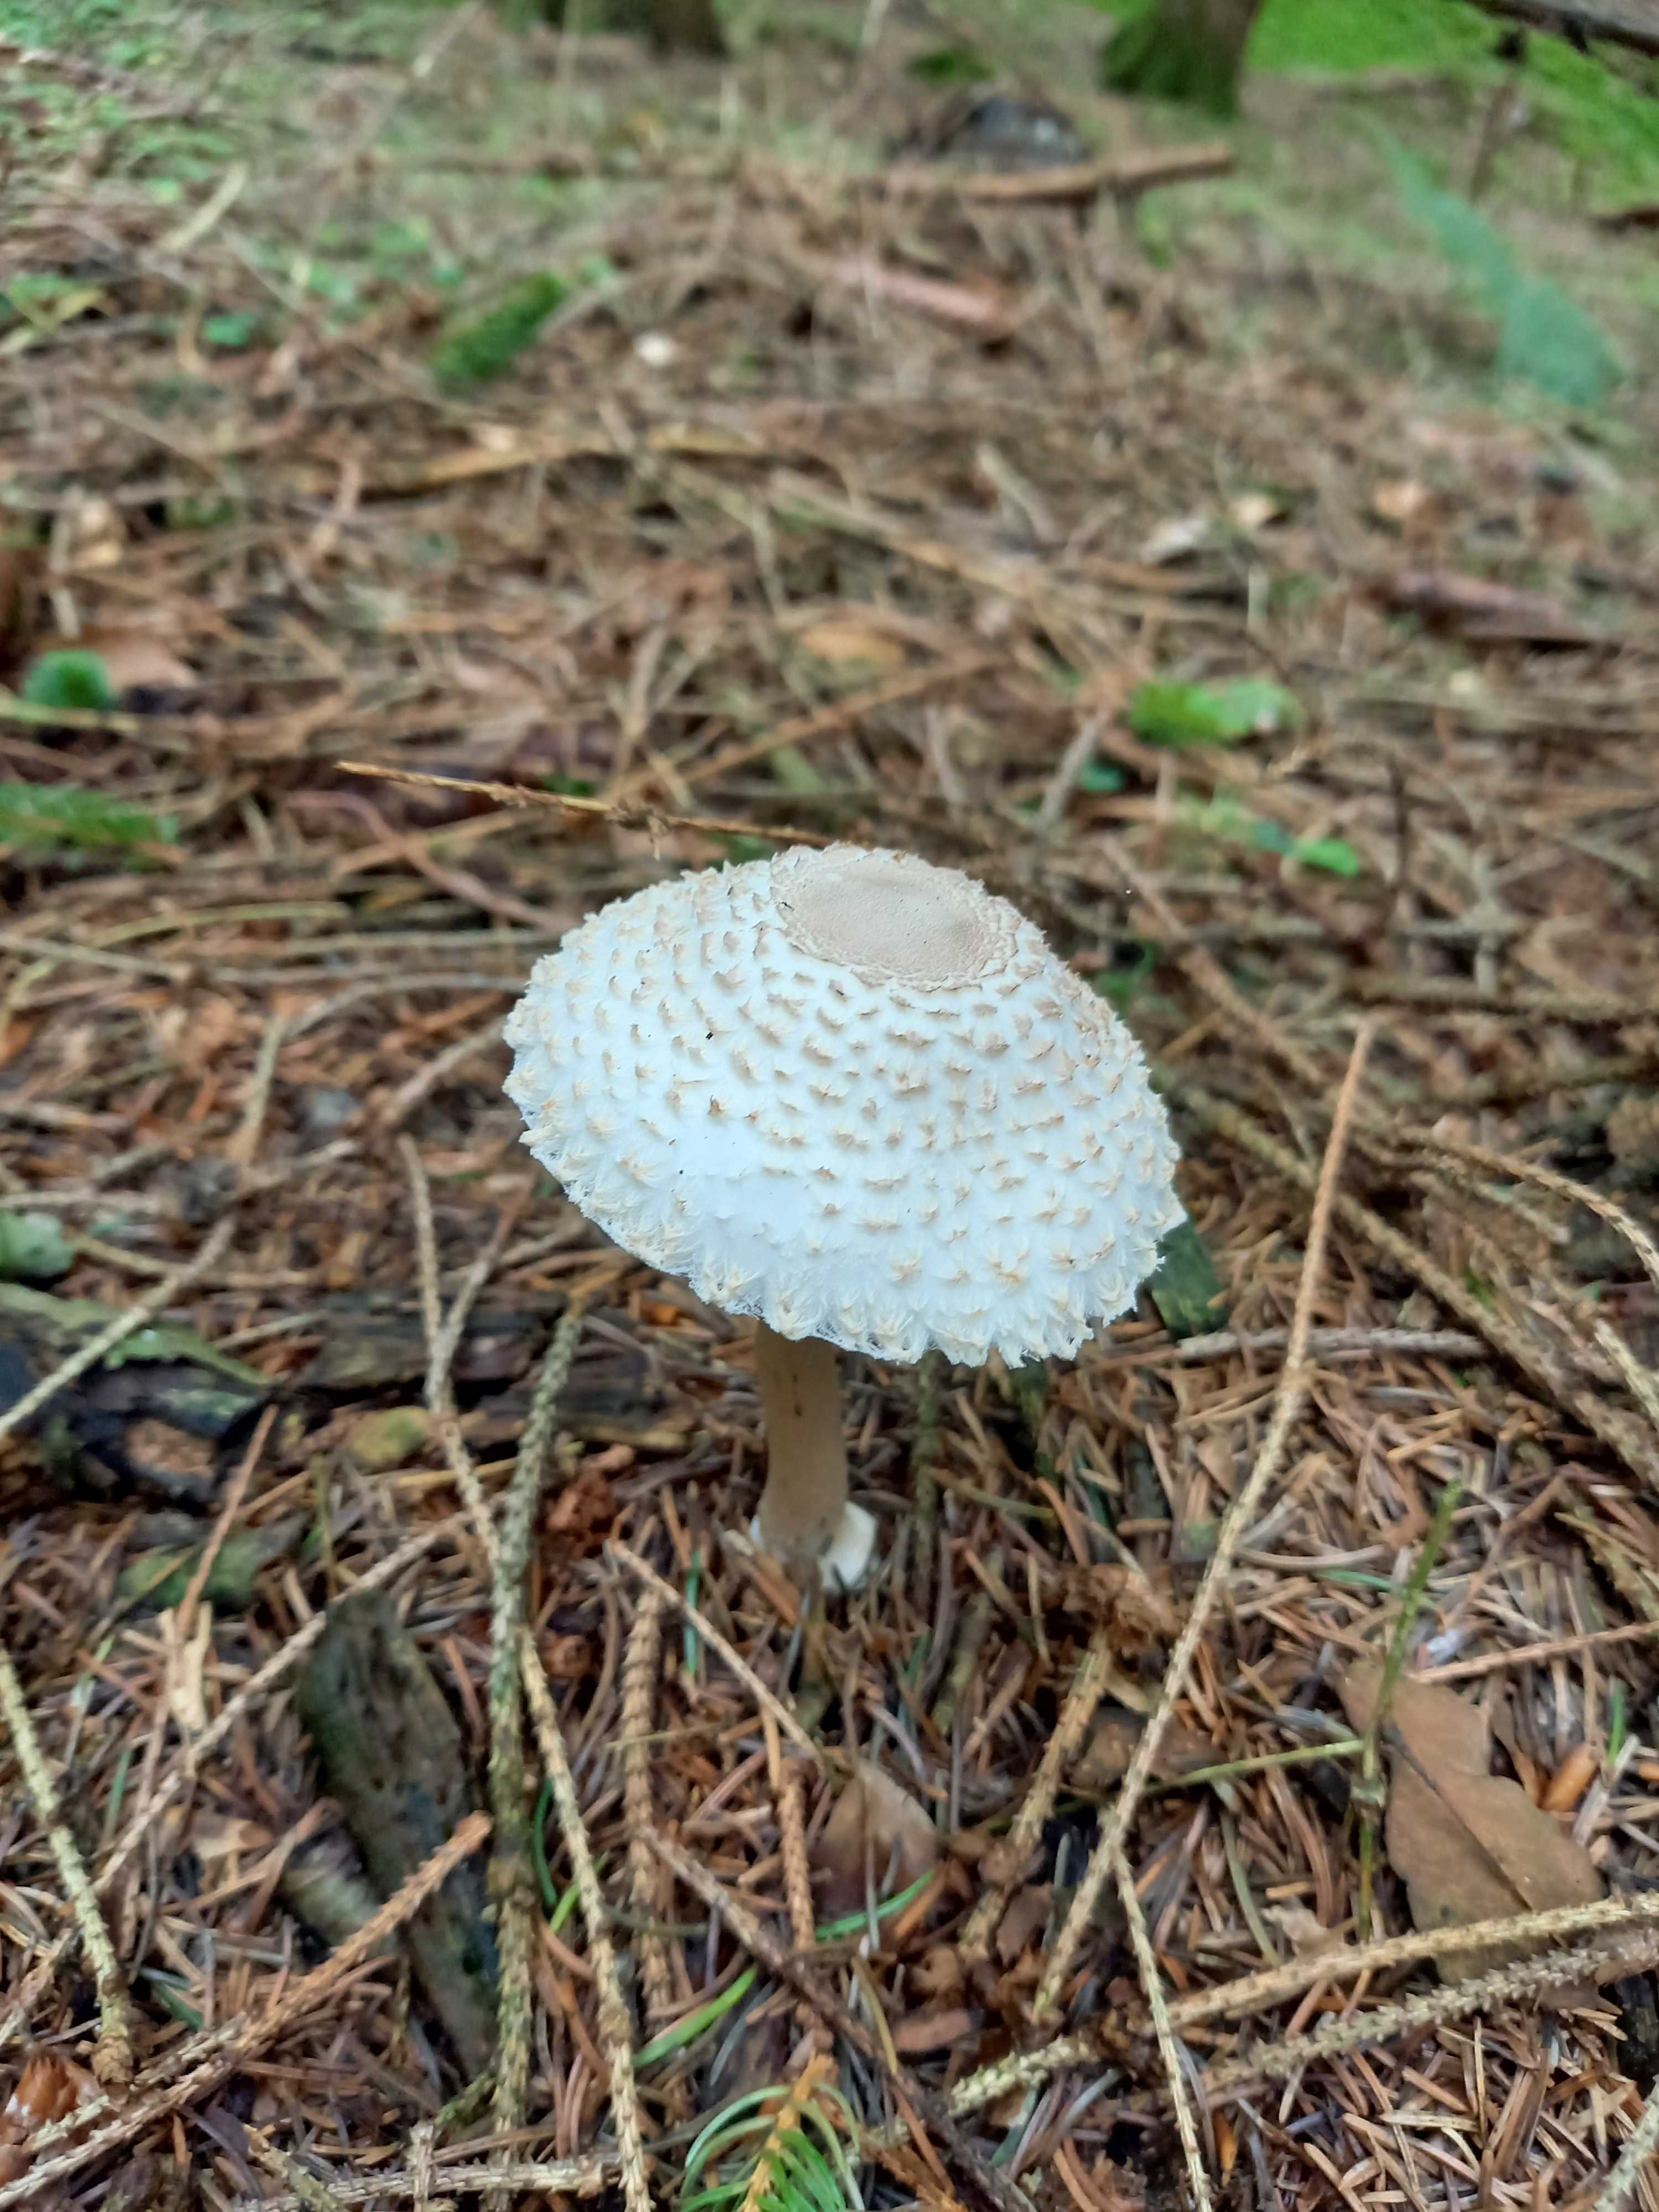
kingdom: Fungi
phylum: Basidiomycota
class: Agaricomycetes
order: Agaricales
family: Agaricaceae
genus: Leucoagaricus
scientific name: Leucoagaricus nympharum
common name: gran-silkehat
